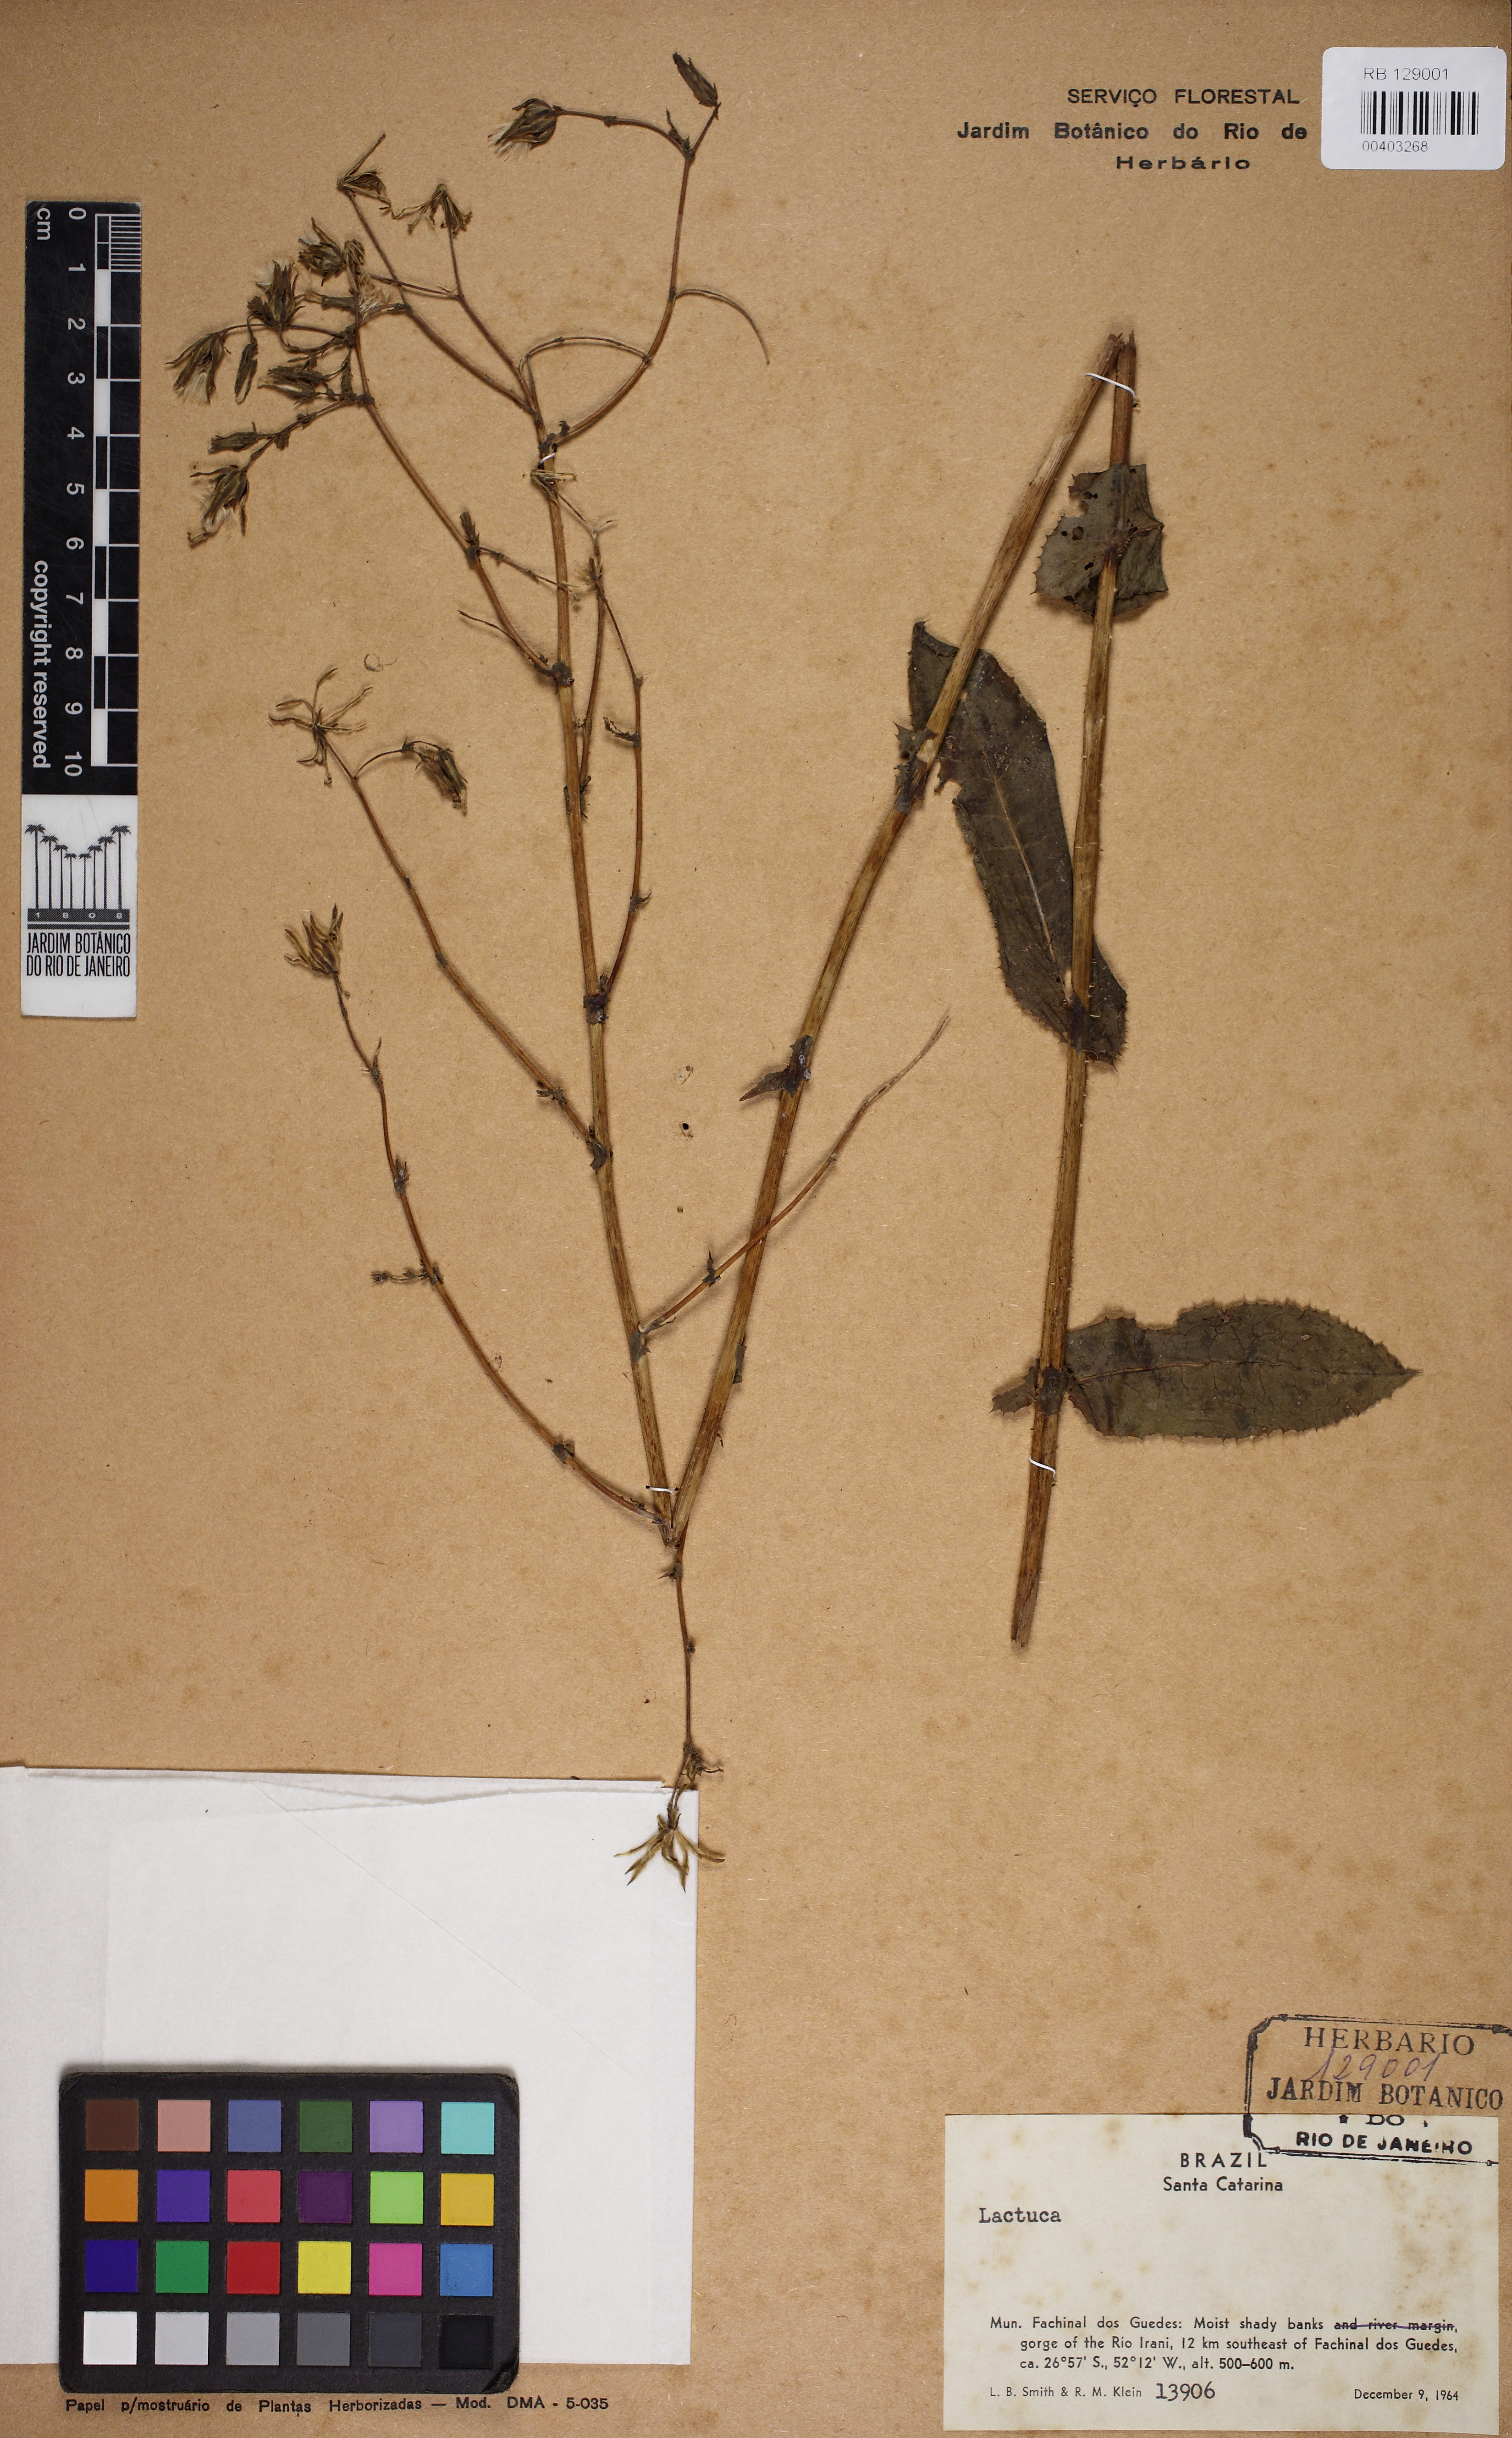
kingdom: Plantae
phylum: Tracheophyta
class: Magnoliopsida
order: Asterales
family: Asteraceae
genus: Lactuca
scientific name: Lactuca
